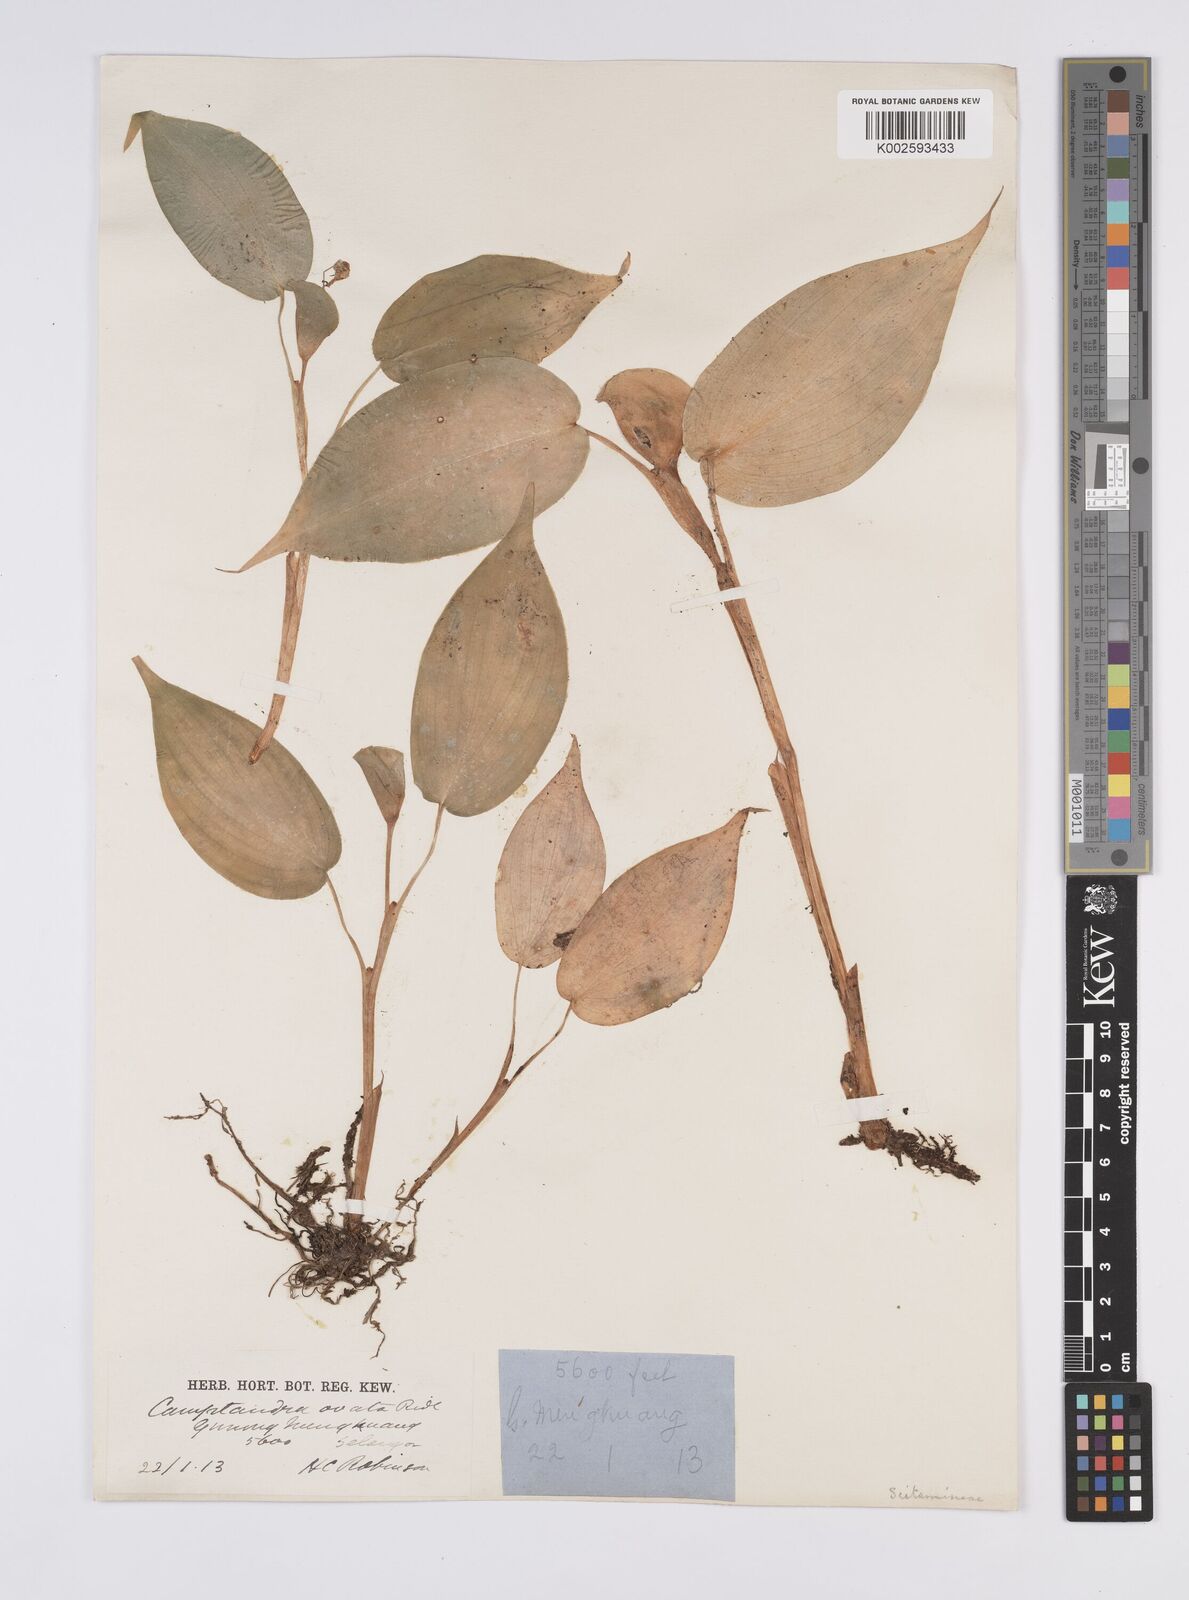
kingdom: Plantae
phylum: Tracheophyta
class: Liliopsida
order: Zingiberales
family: Zingiberaceae
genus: Camptandra
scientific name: Camptandra ovata
